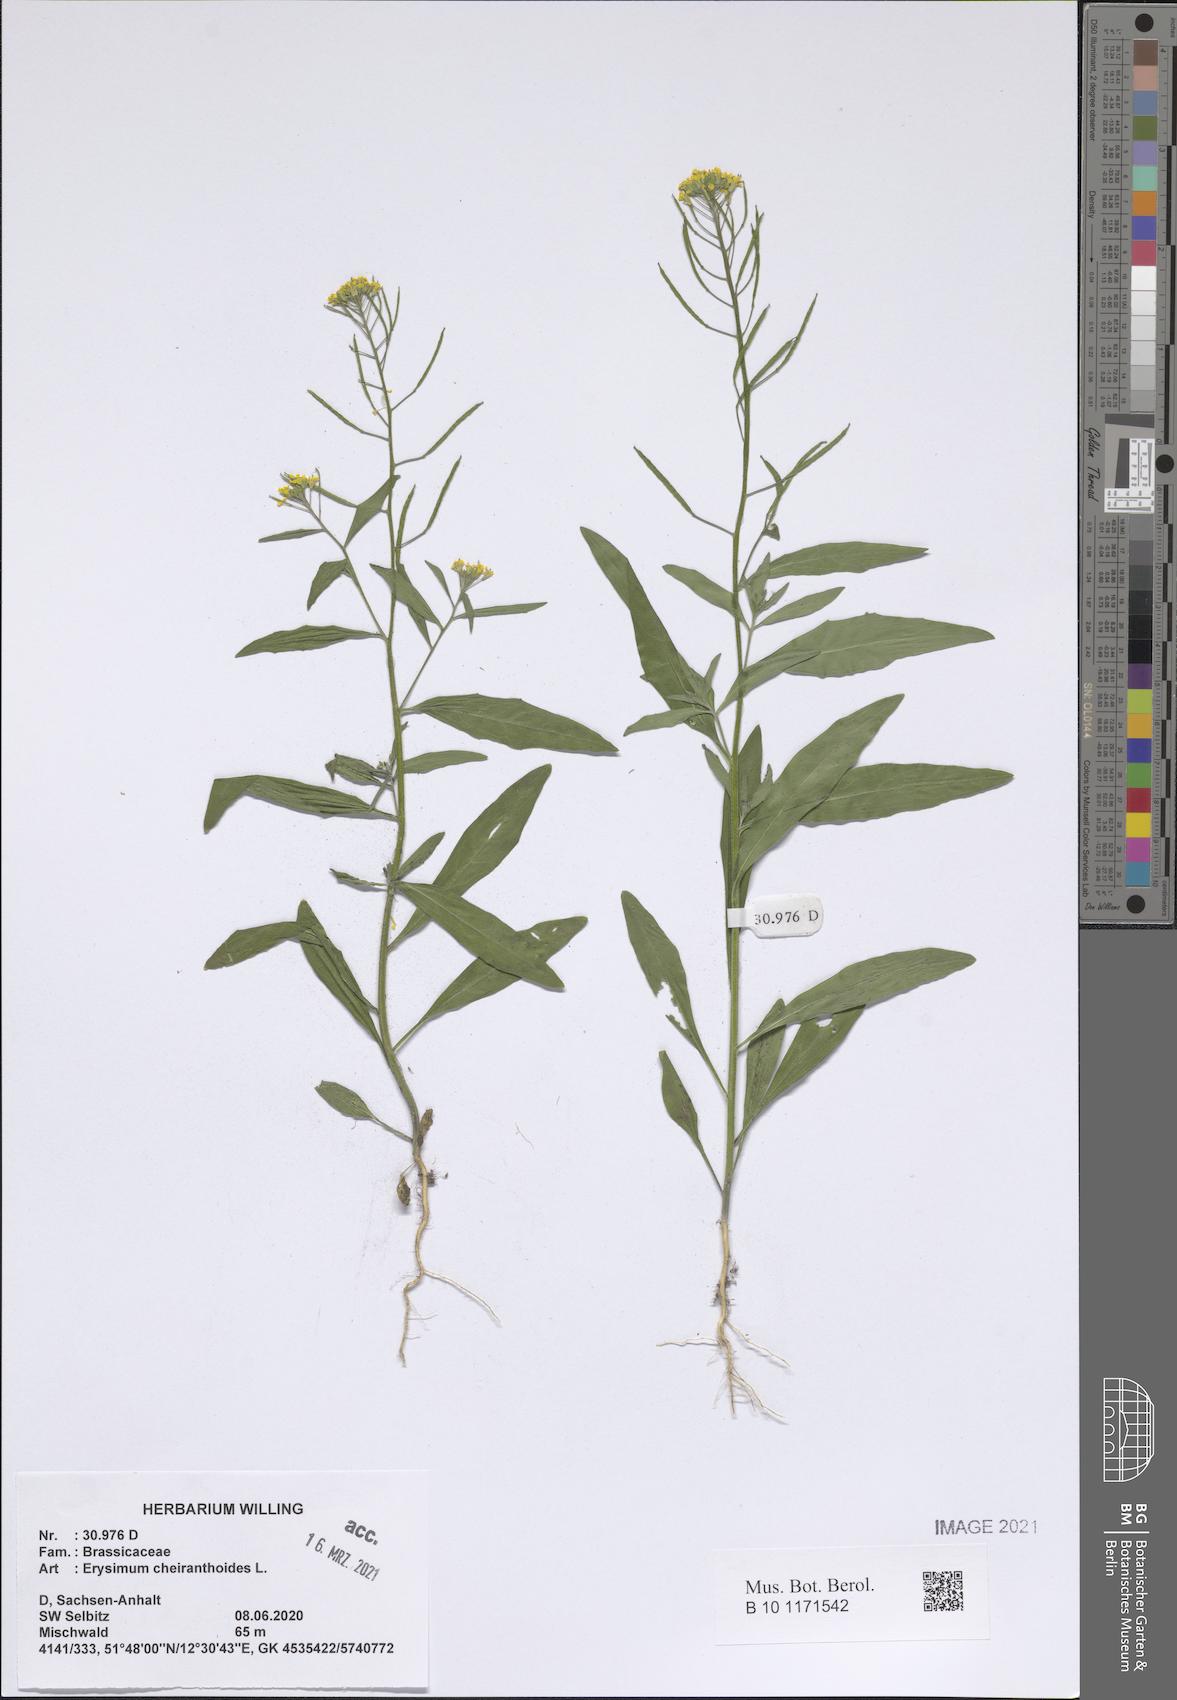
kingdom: Plantae
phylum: Tracheophyta
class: Magnoliopsida
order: Brassicales
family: Brassicaceae
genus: Erysimum
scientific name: Erysimum cheiranthoides
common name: Treacle mustard
